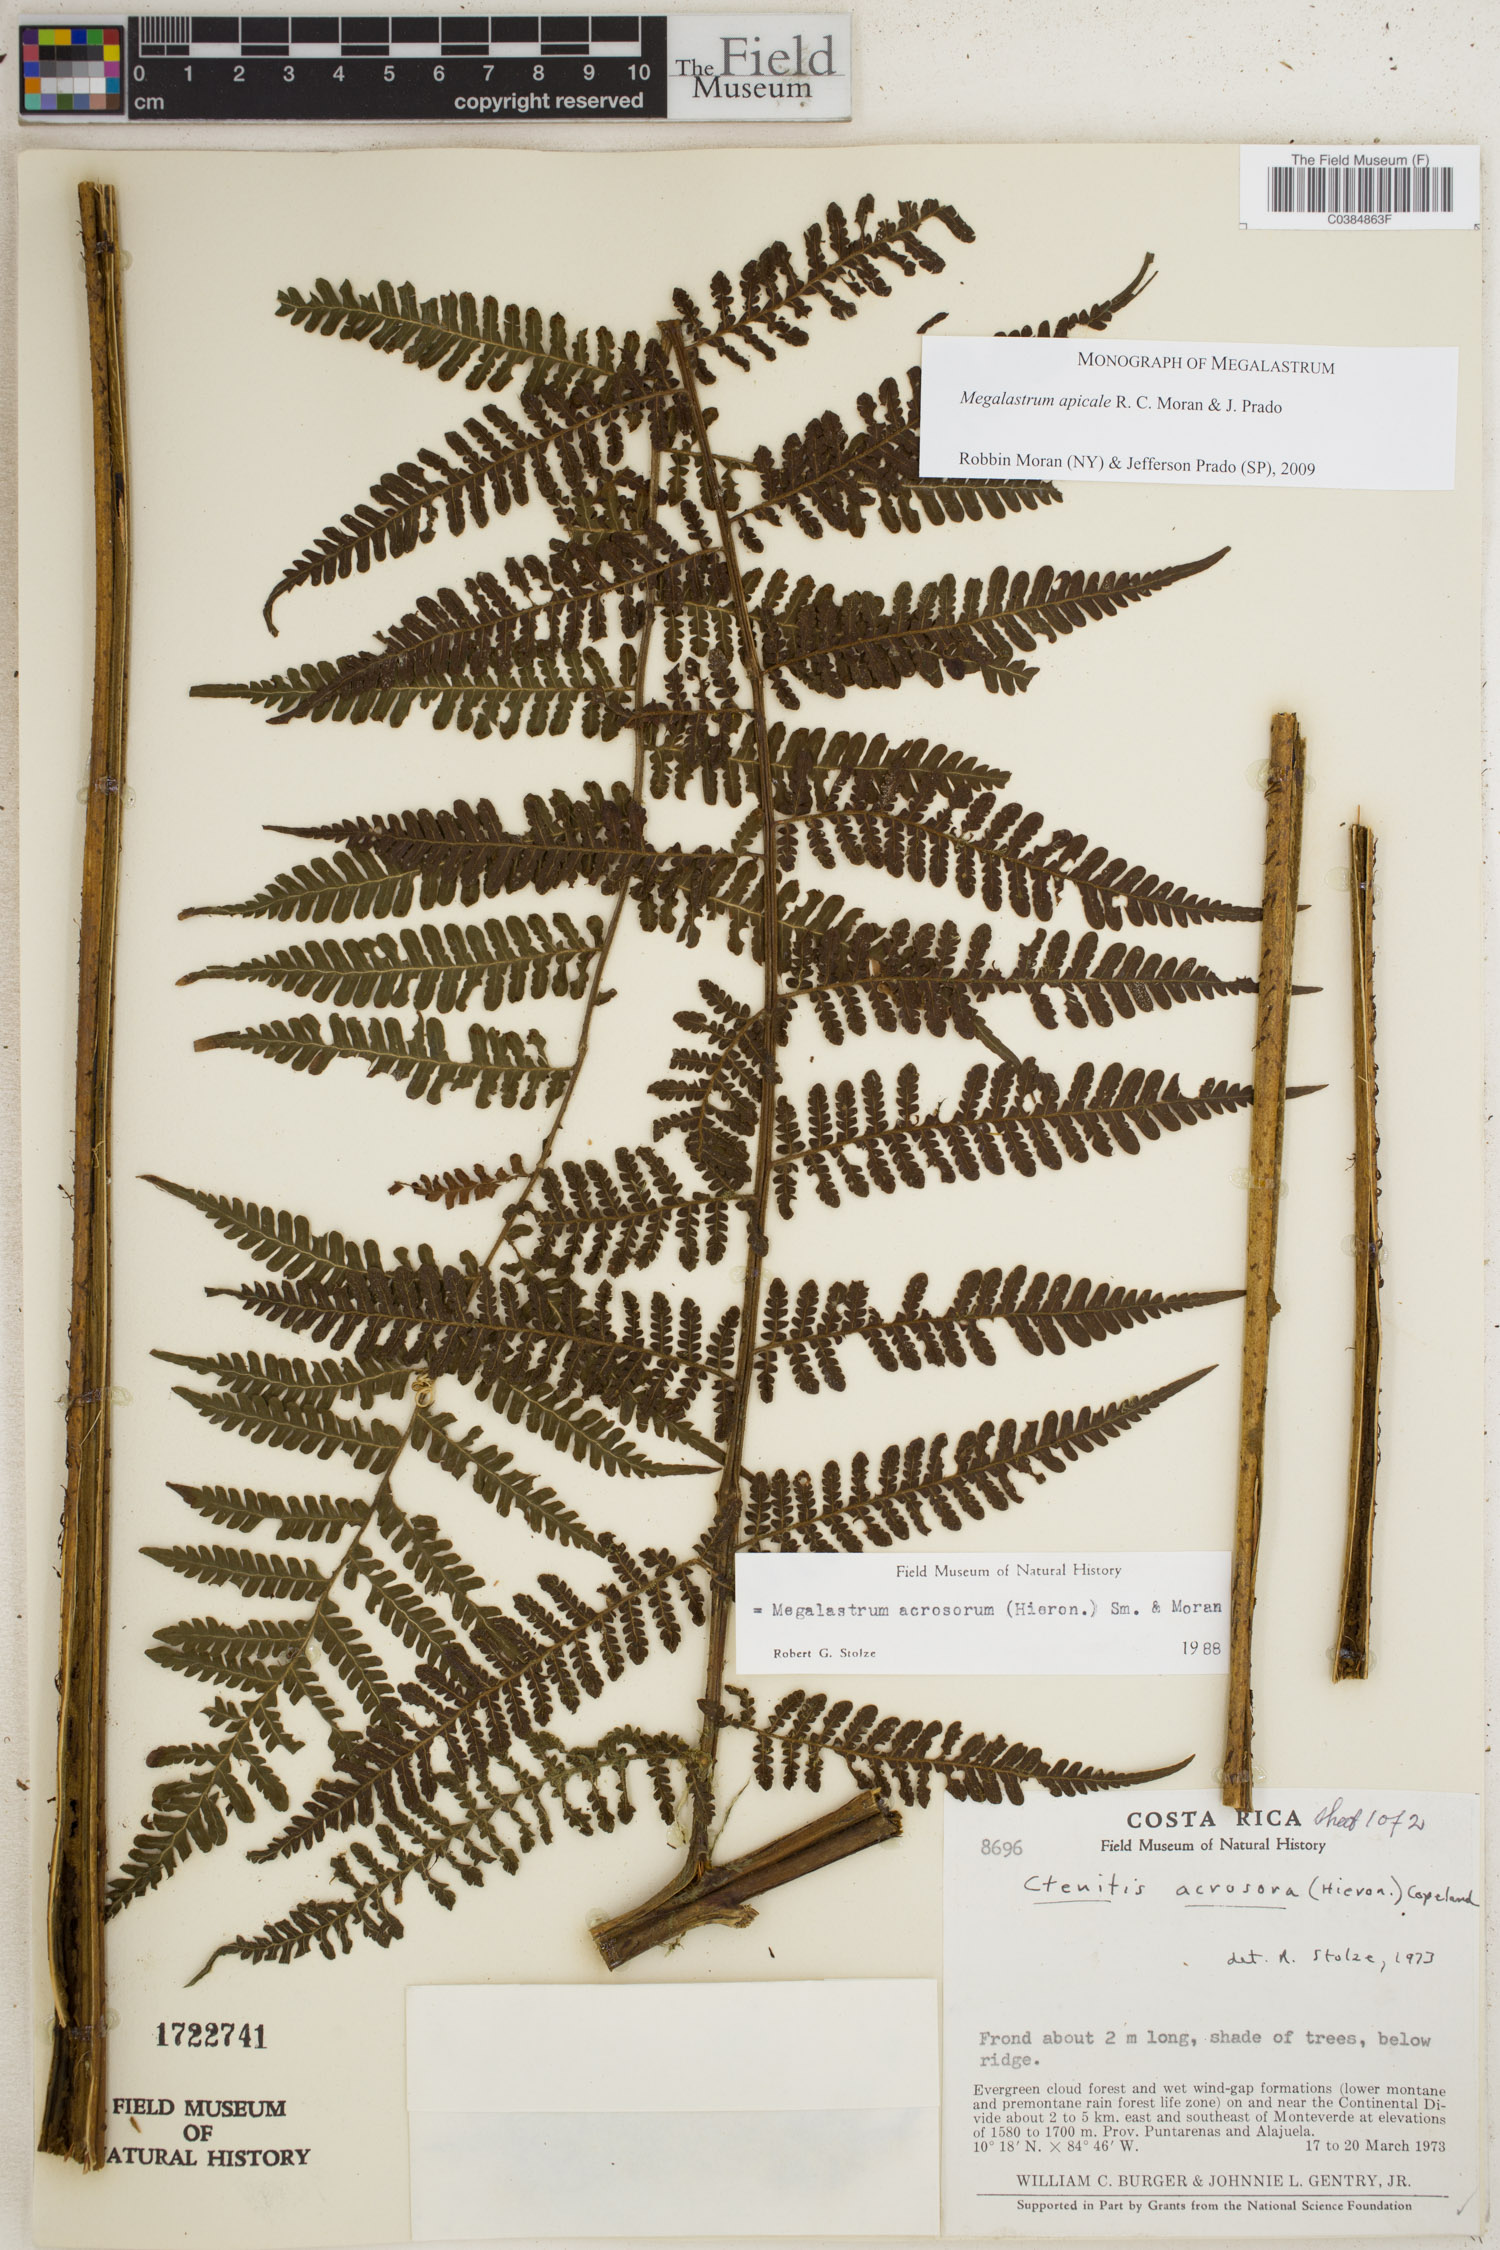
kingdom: Plantae
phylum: Tracheophyta
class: Polypodiopsida
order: Polypodiales
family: Dryopteridaceae
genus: Megalastrum
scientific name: Megalastrum apicale
